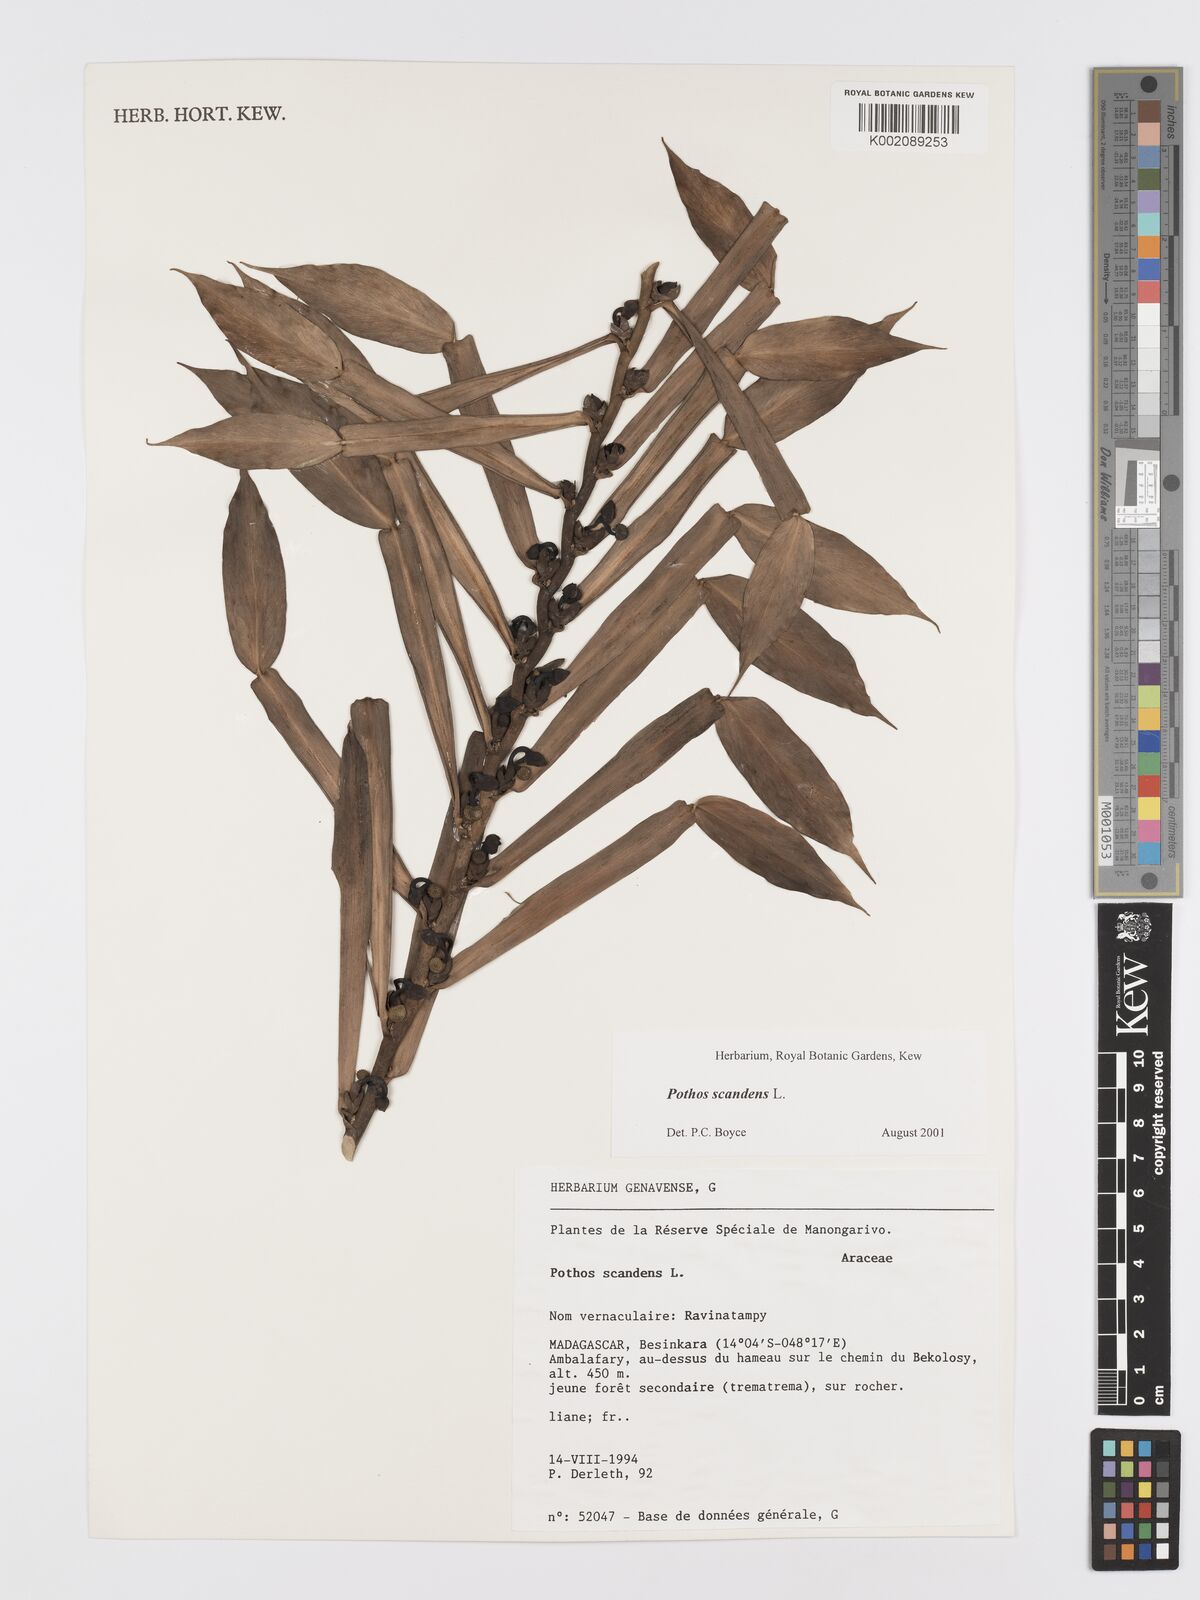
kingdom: Plantae
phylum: Tracheophyta
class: Liliopsida
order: Alismatales
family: Araceae
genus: Pothos
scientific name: Pothos scandens
